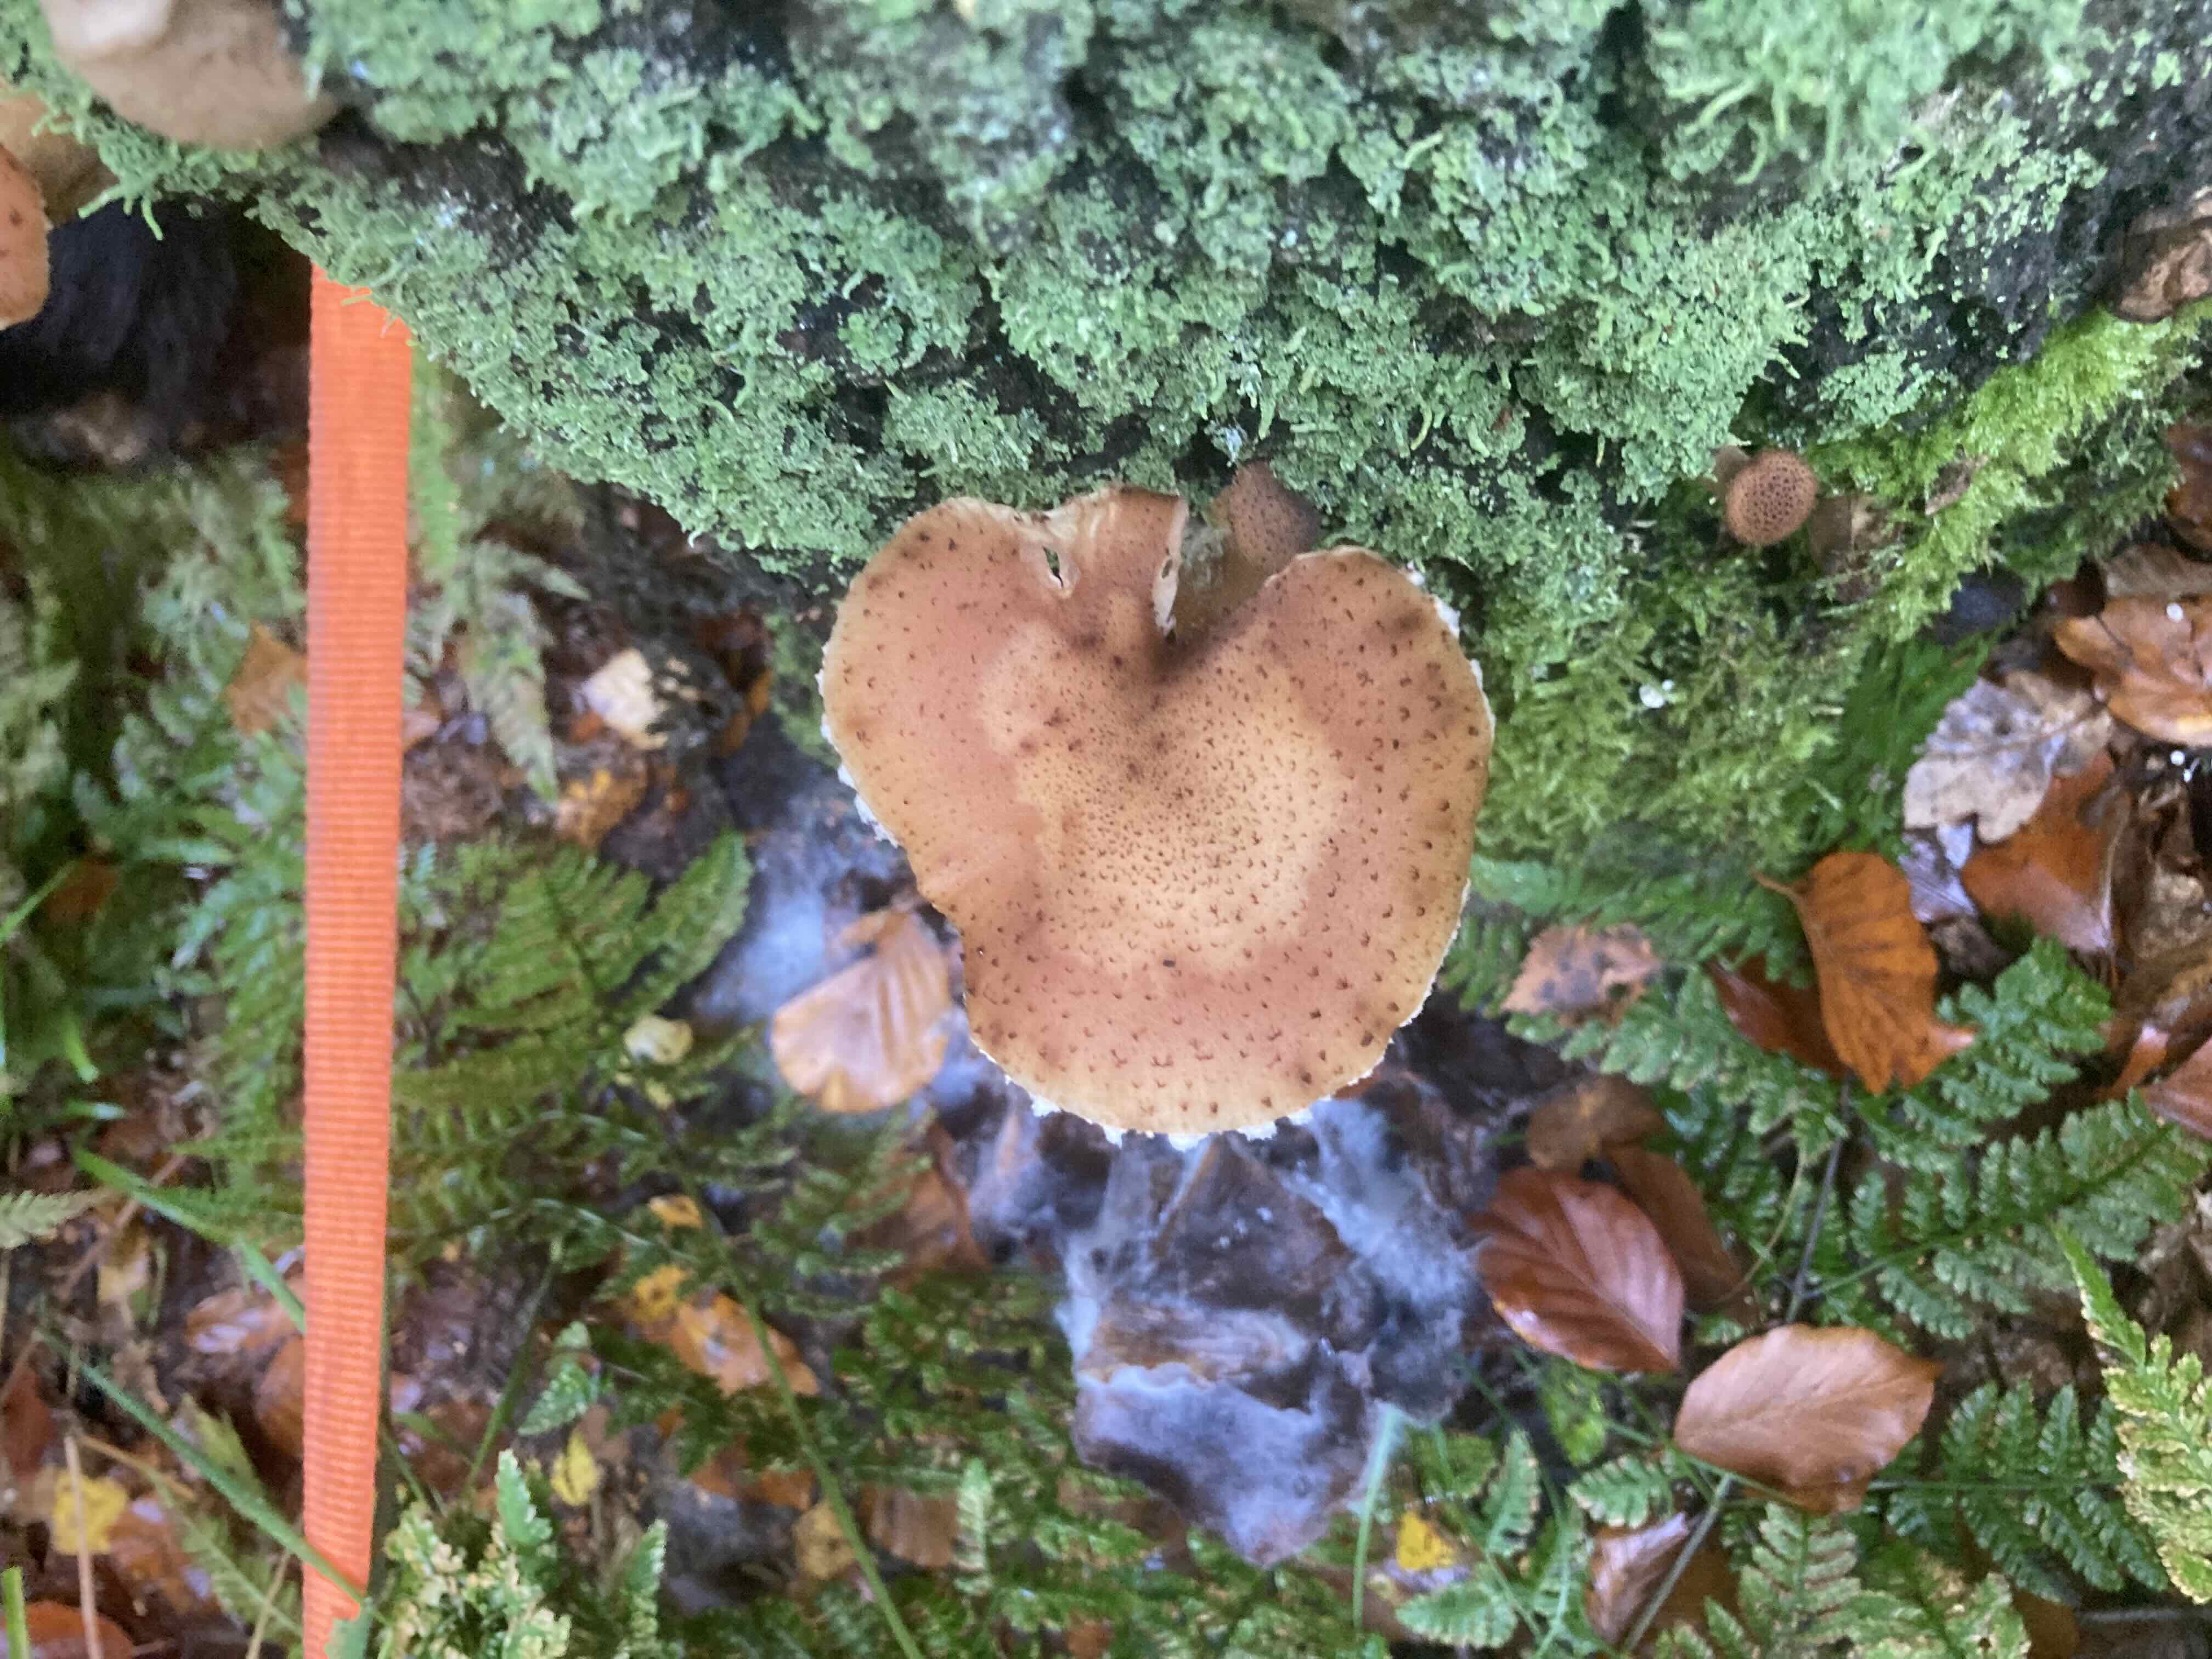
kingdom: Fungi
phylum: Basidiomycota
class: Agaricomycetes
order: Agaricales
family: Physalacriaceae
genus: Armillaria
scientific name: Armillaria lutea
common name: køllestokket honningsvamp
